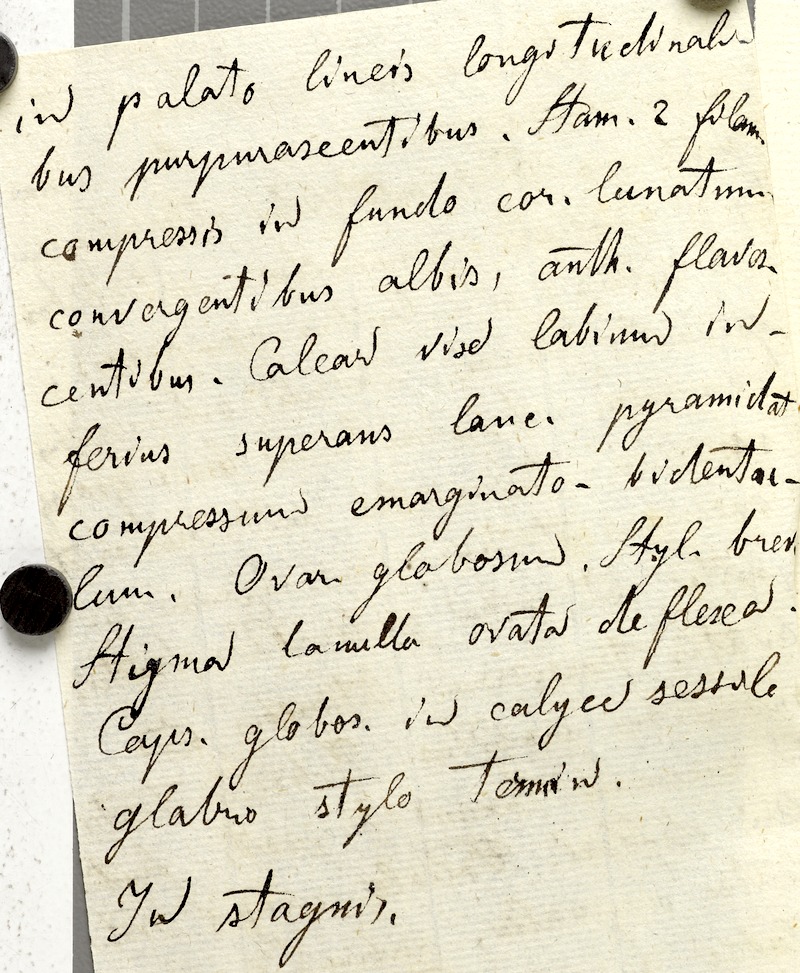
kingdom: Plantae
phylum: Tracheophyta
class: Magnoliopsida
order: Lamiales
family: Lentibulariaceae
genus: Utricularia
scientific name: Utricularia foliosa
